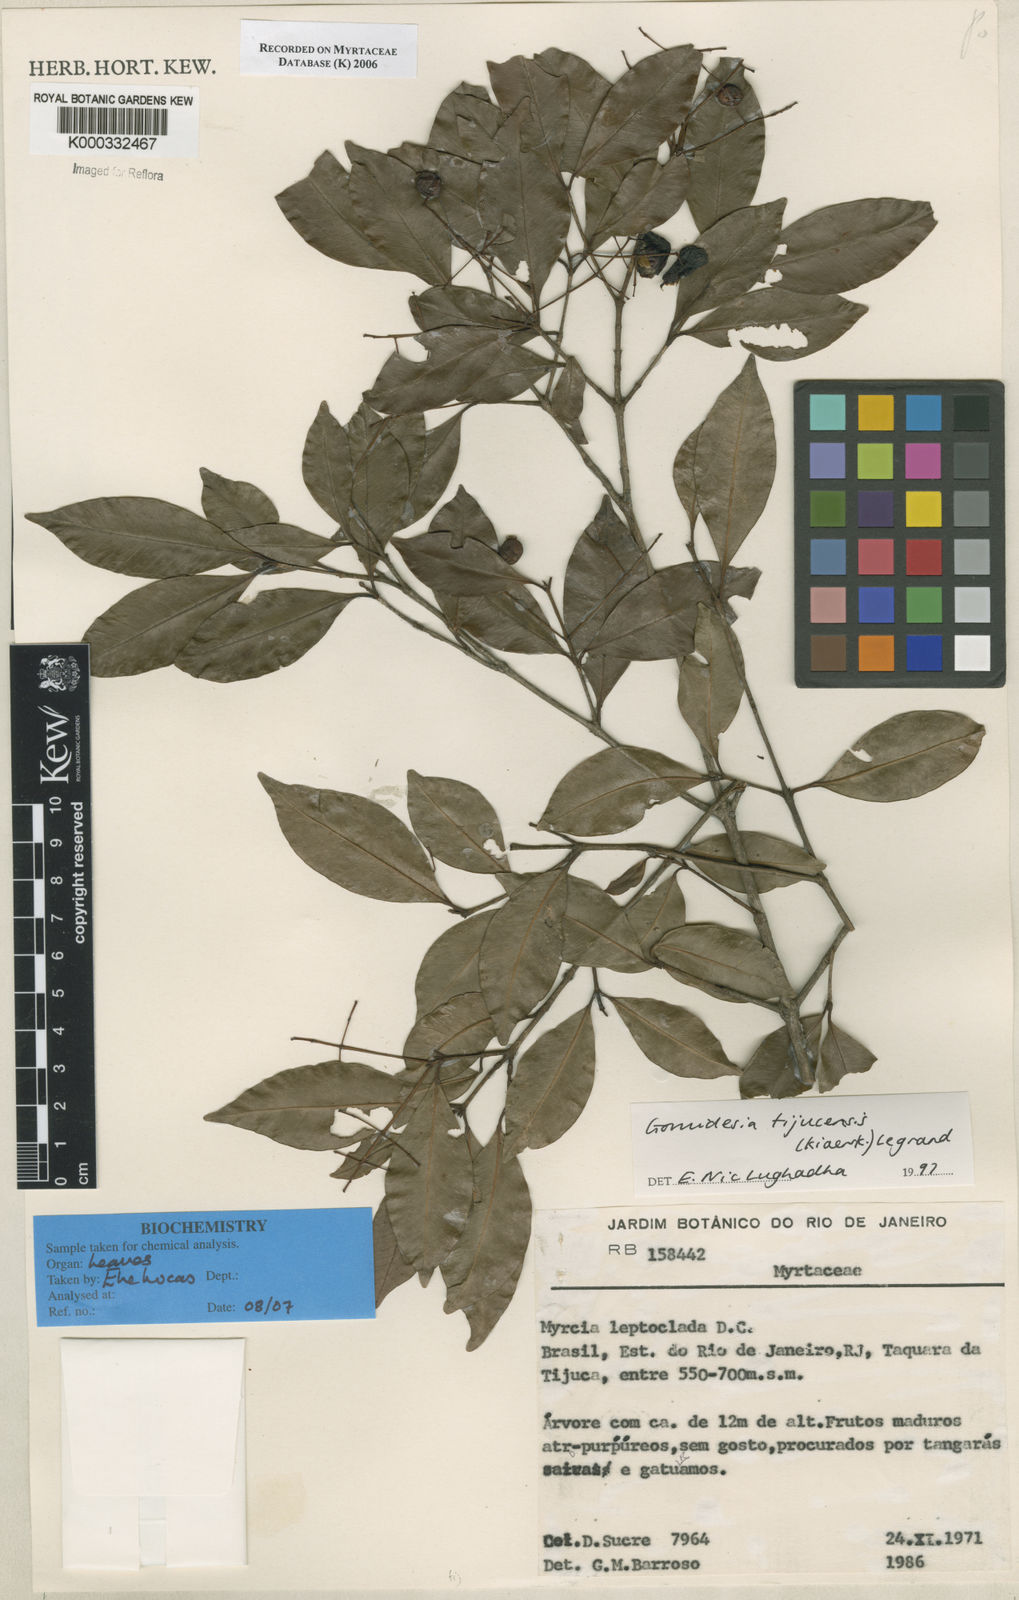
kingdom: Plantae
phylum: Tracheophyta
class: Magnoliopsida
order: Myrtales
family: Myrtaceae
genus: Myrcia
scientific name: Myrcia tijucensis
